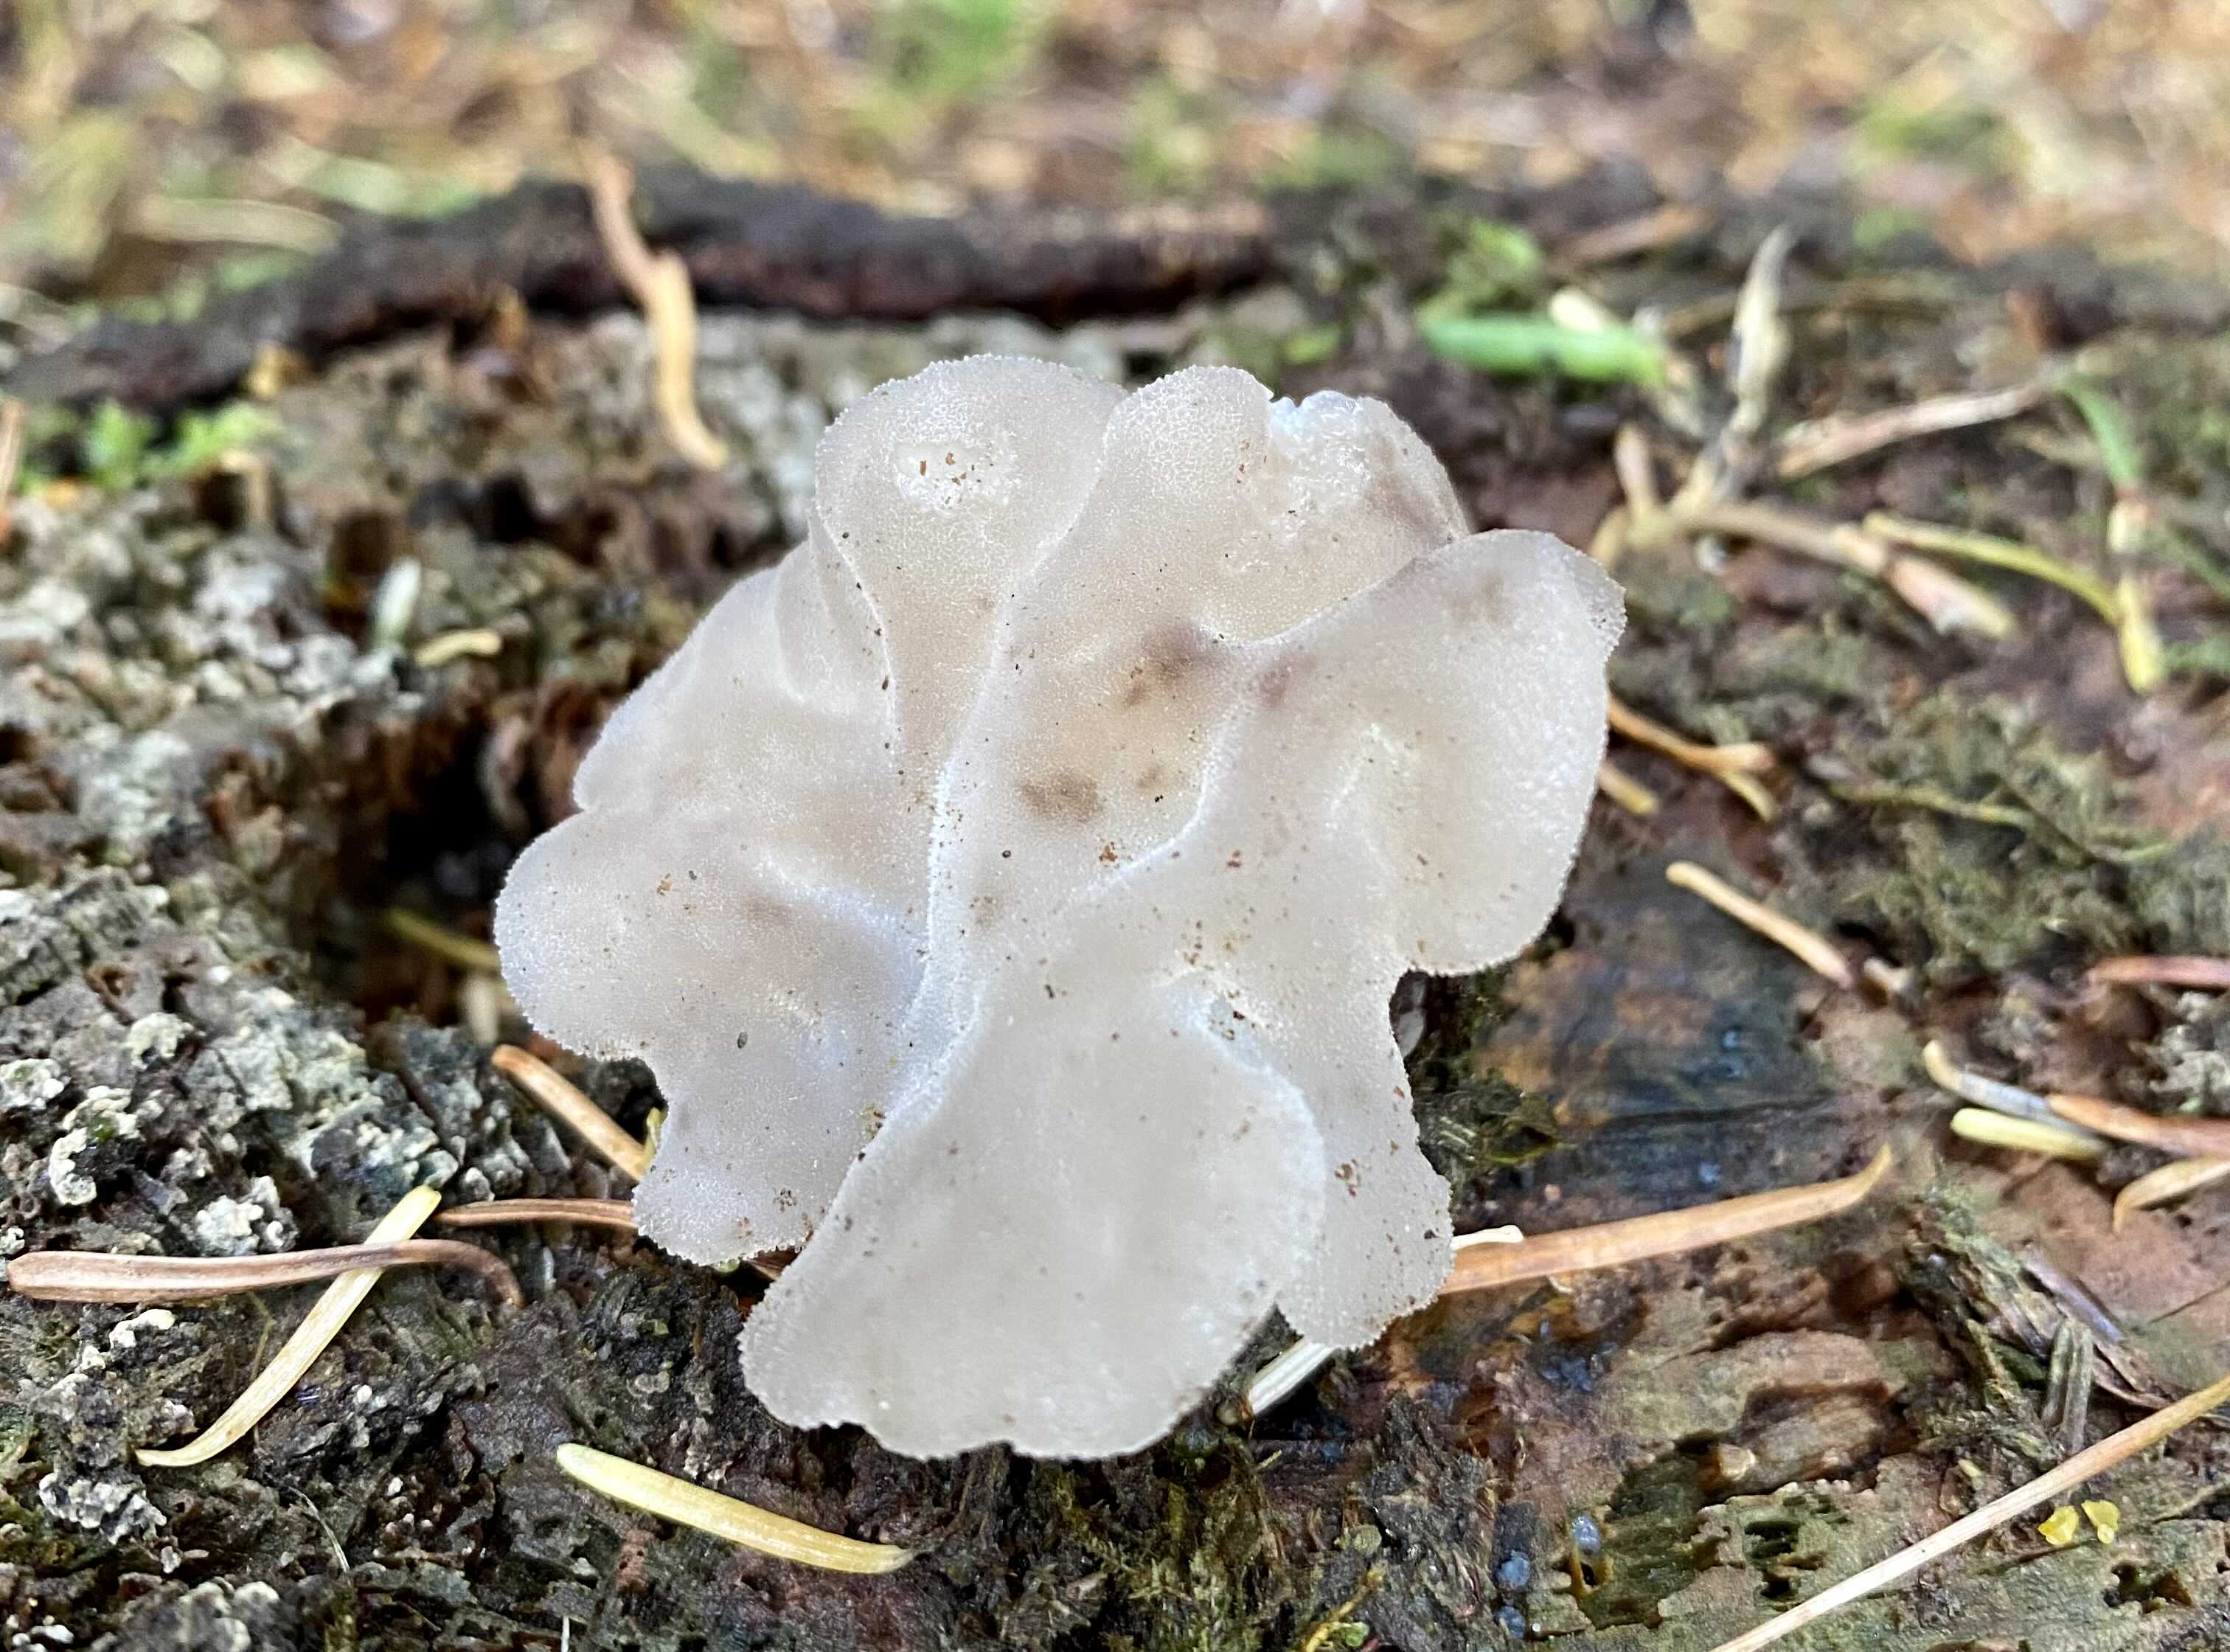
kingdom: Fungi
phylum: Basidiomycota
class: Agaricomycetes
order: Auriculariales
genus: Pseudohydnum
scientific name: Pseudohydnum gelatinosum
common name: bævretand
